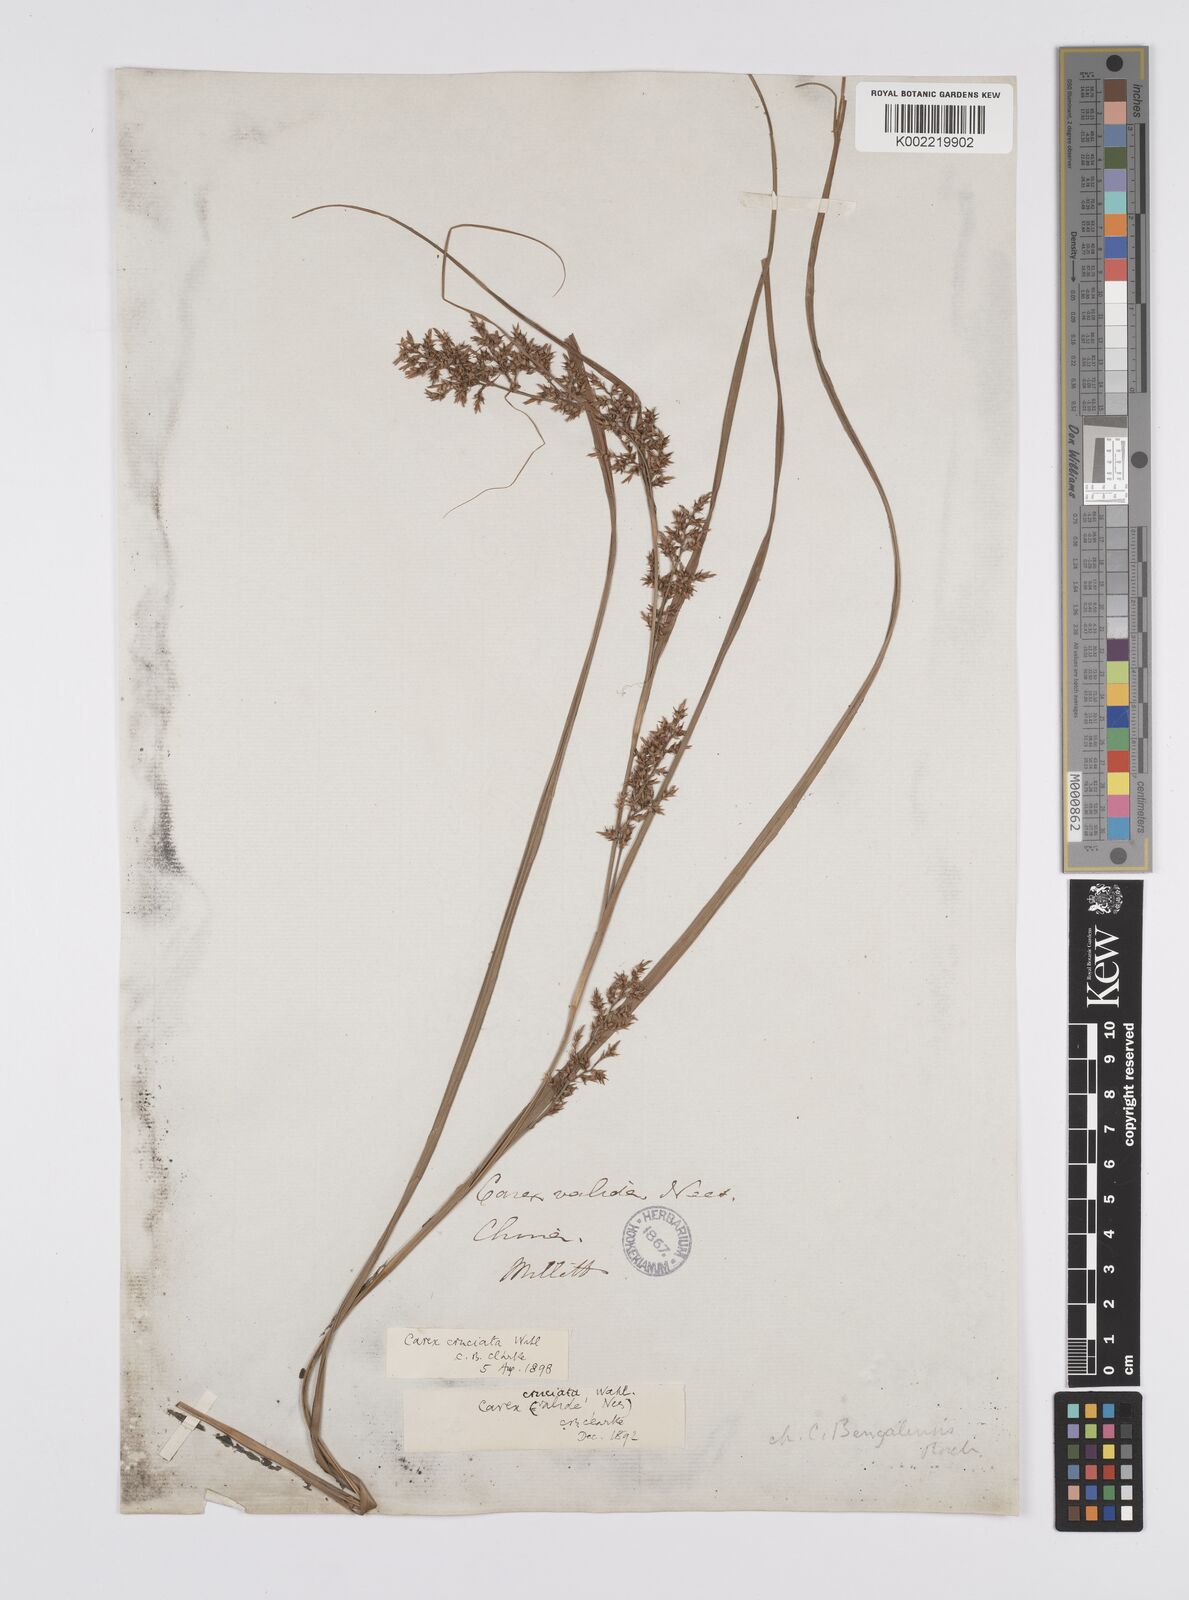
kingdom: Plantae
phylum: Tracheophyta
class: Liliopsida
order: Poales
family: Cyperaceae
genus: Carex
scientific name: Carex cruciata
